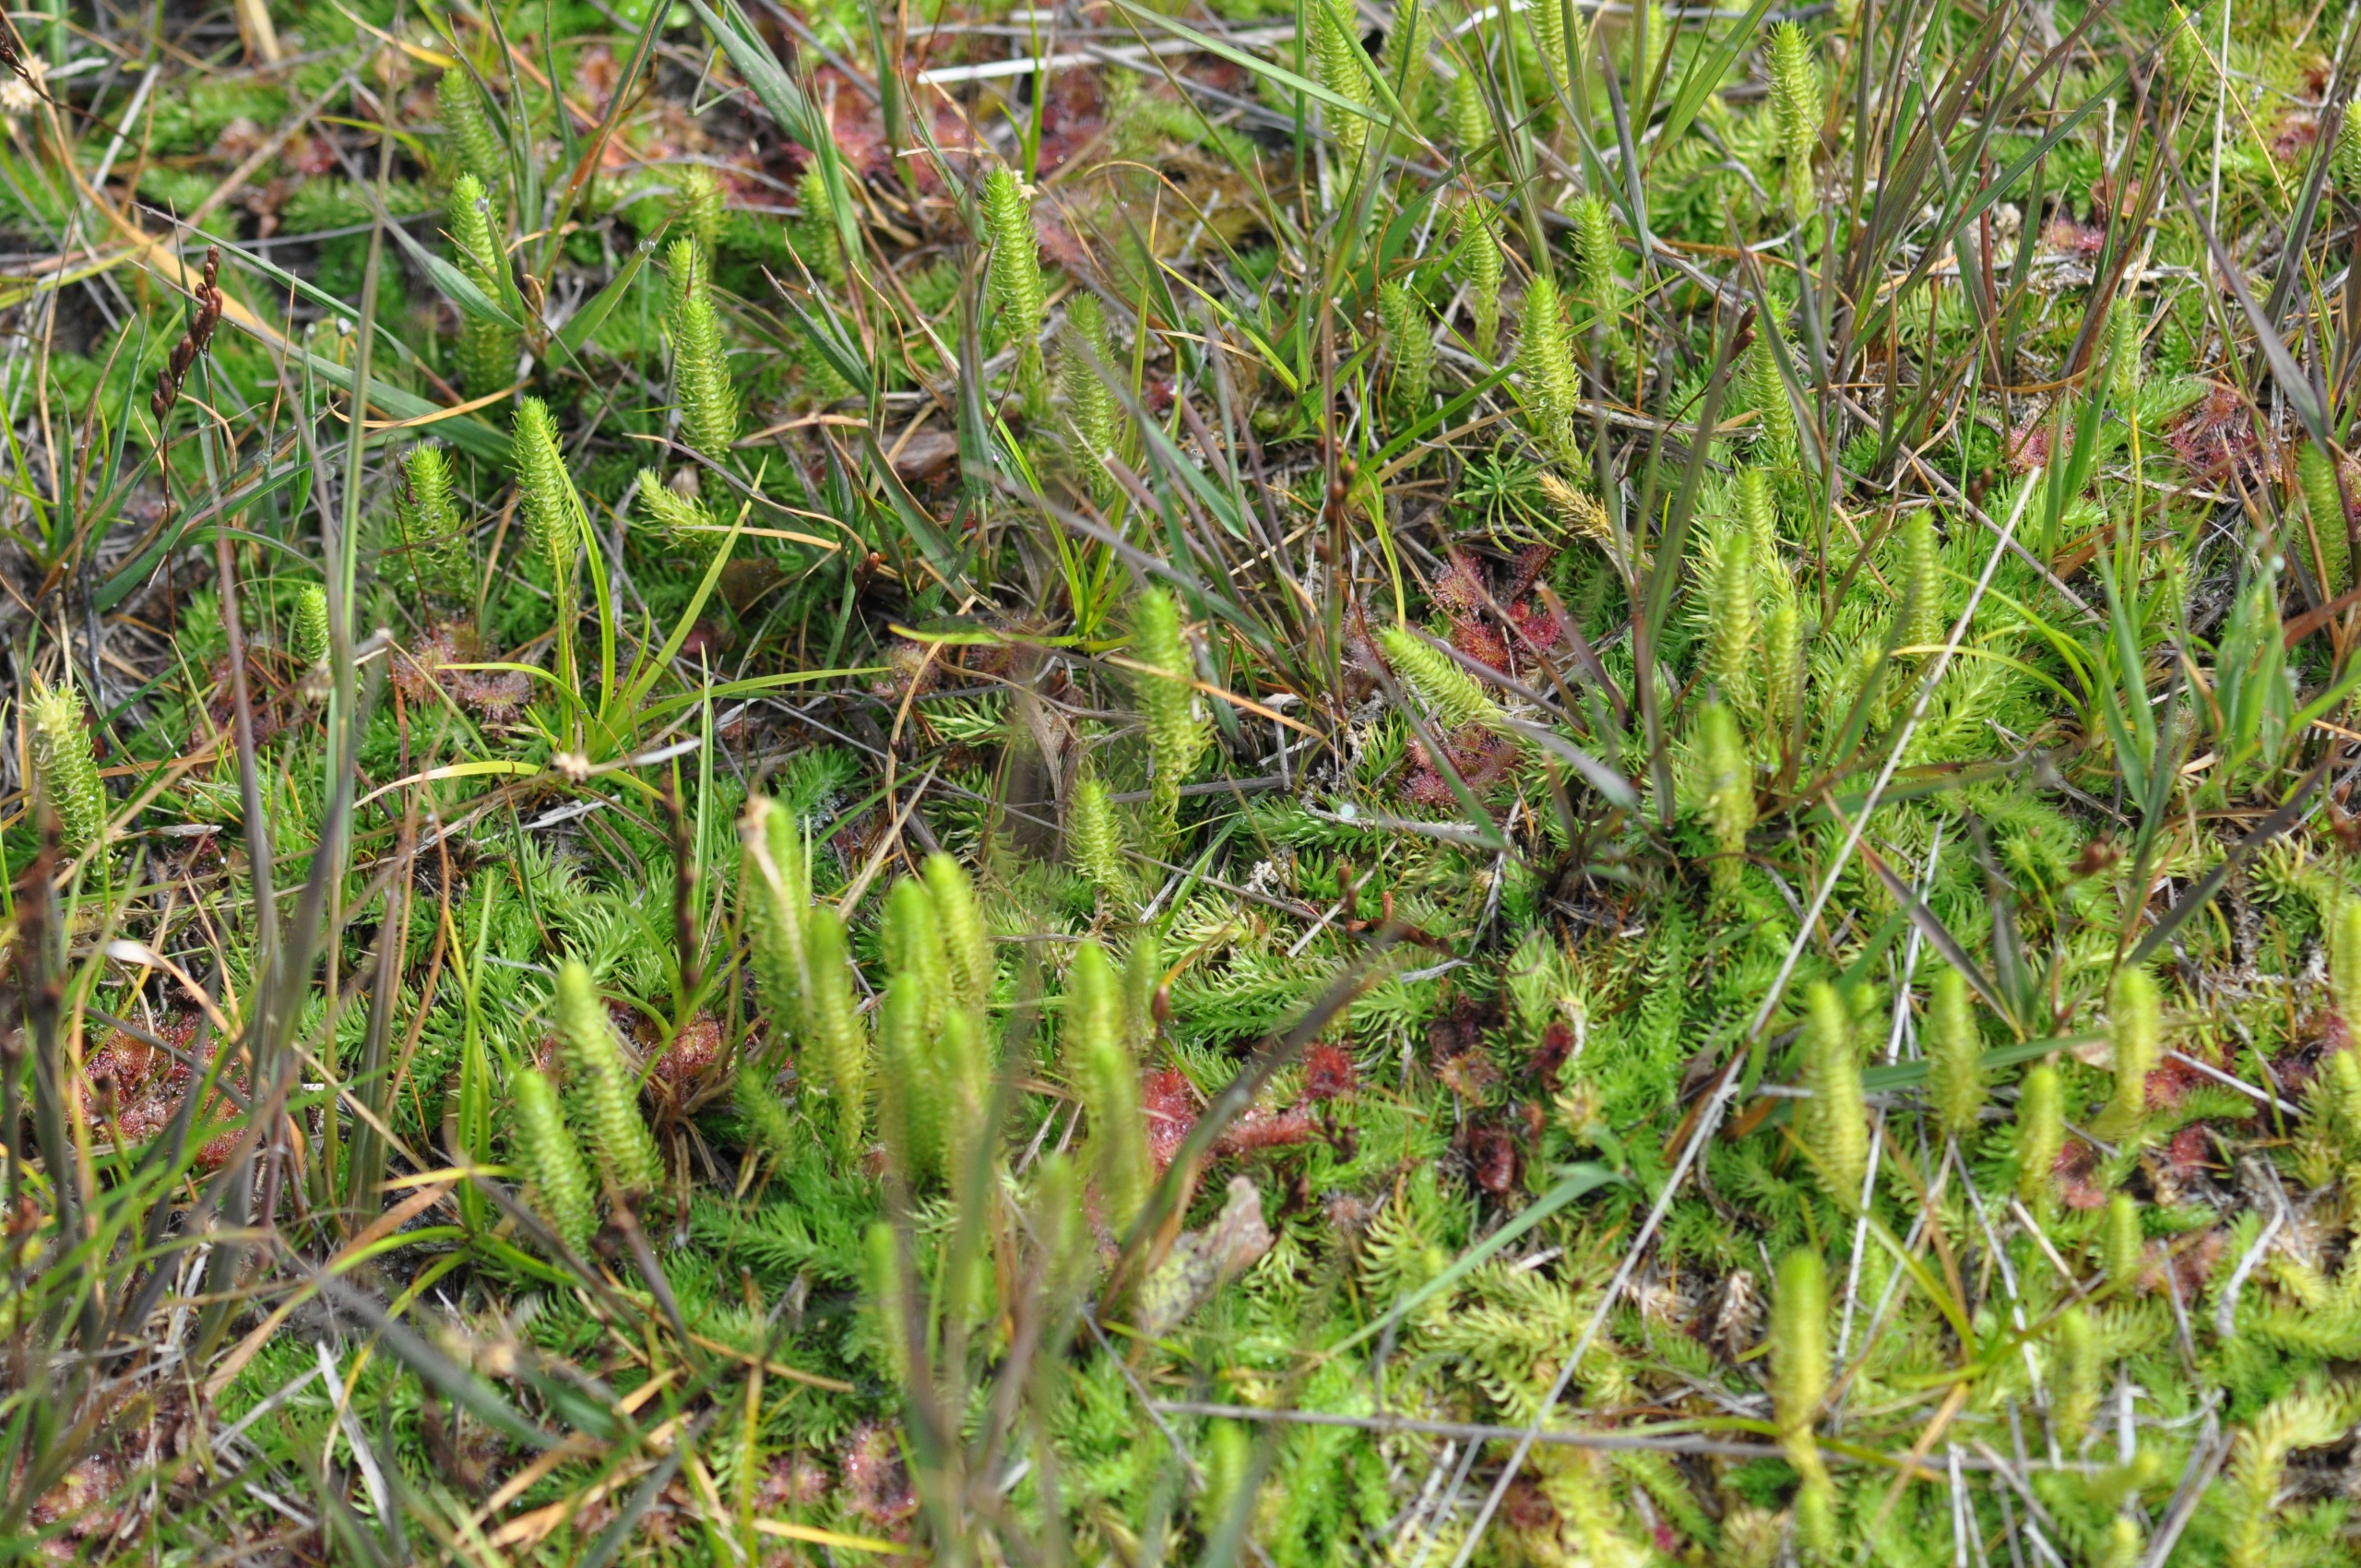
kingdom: Plantae
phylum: Tracheophyta
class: Lycopodiopsida
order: Lycopodiales
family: Lycopodiaceae
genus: Lycopodiella
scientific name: Lycopodiella inundata
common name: Liden ulvefod
